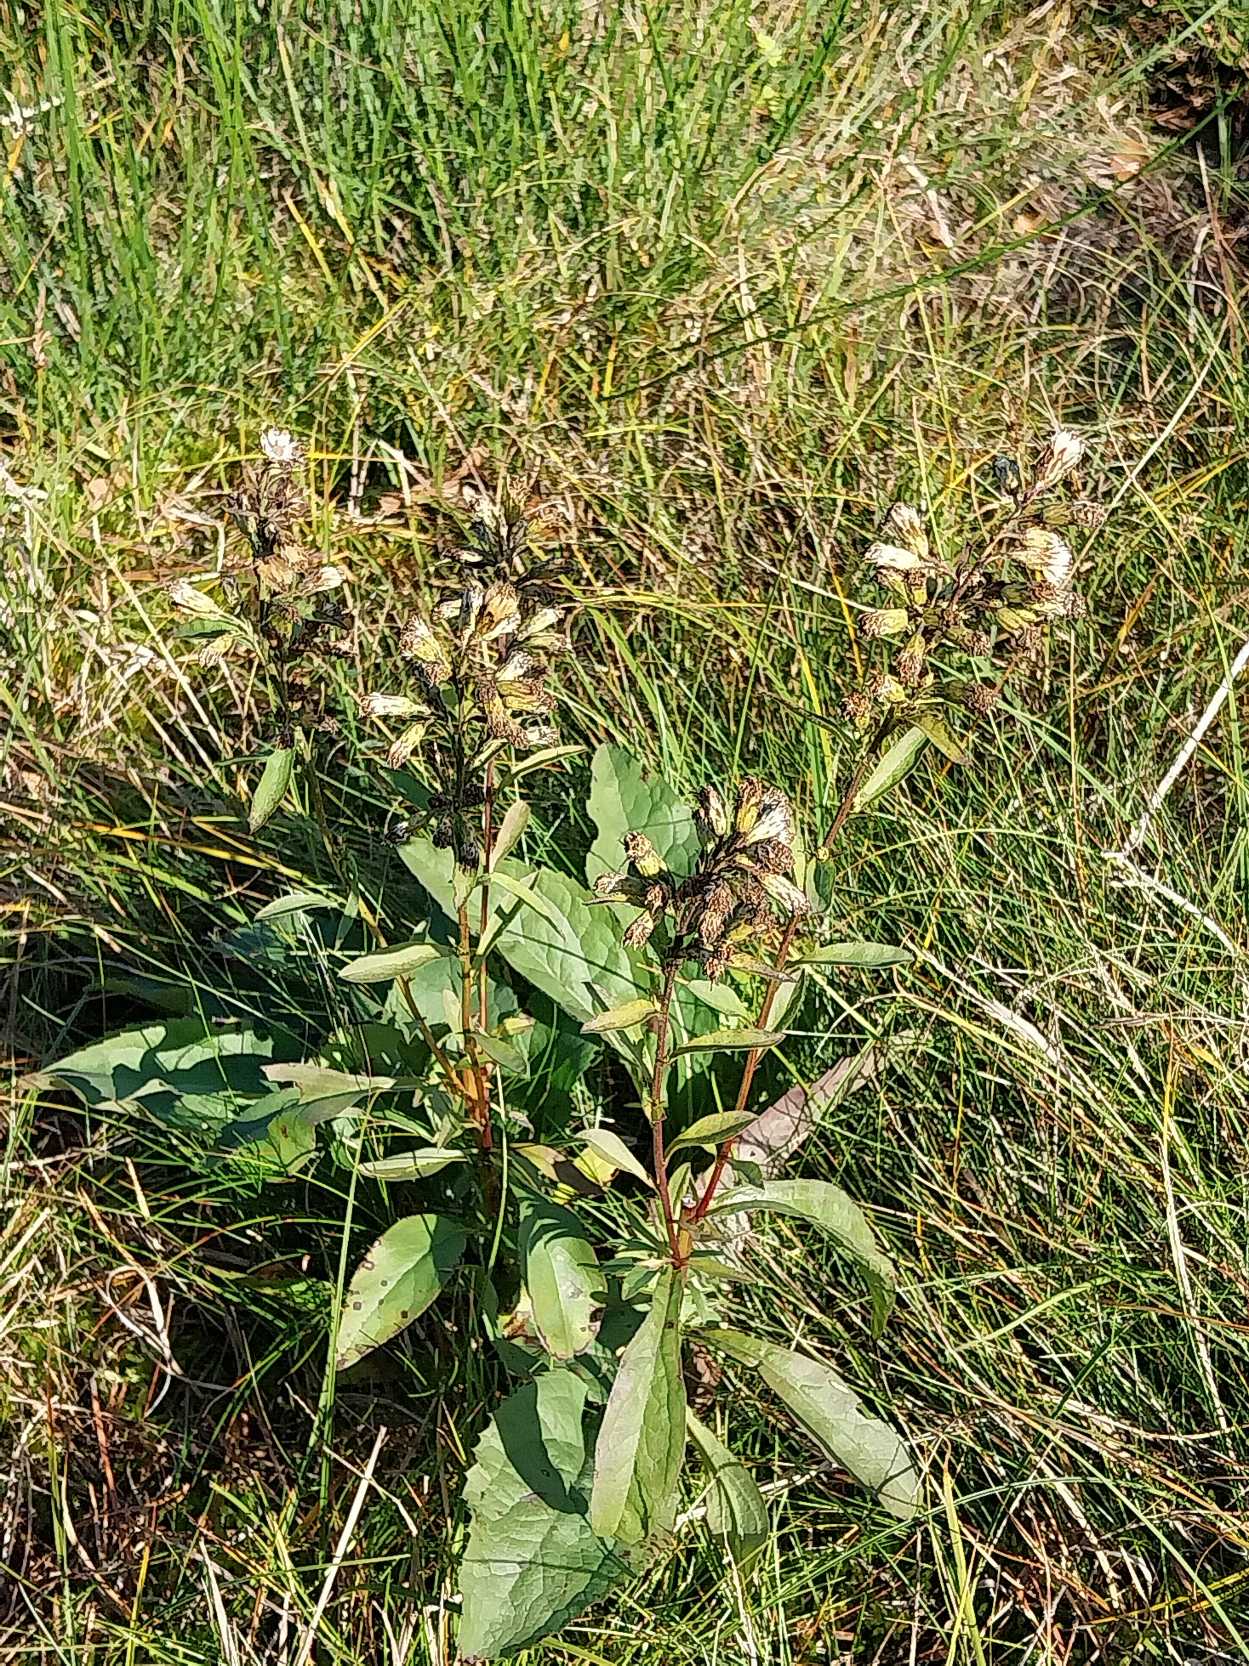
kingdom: Plantae
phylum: Tracheophyta
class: Magnoliopsida
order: Asterales
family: Asteraceae
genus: Solidago
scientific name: Solidago virgaurea
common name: Almindelig gyldenris
